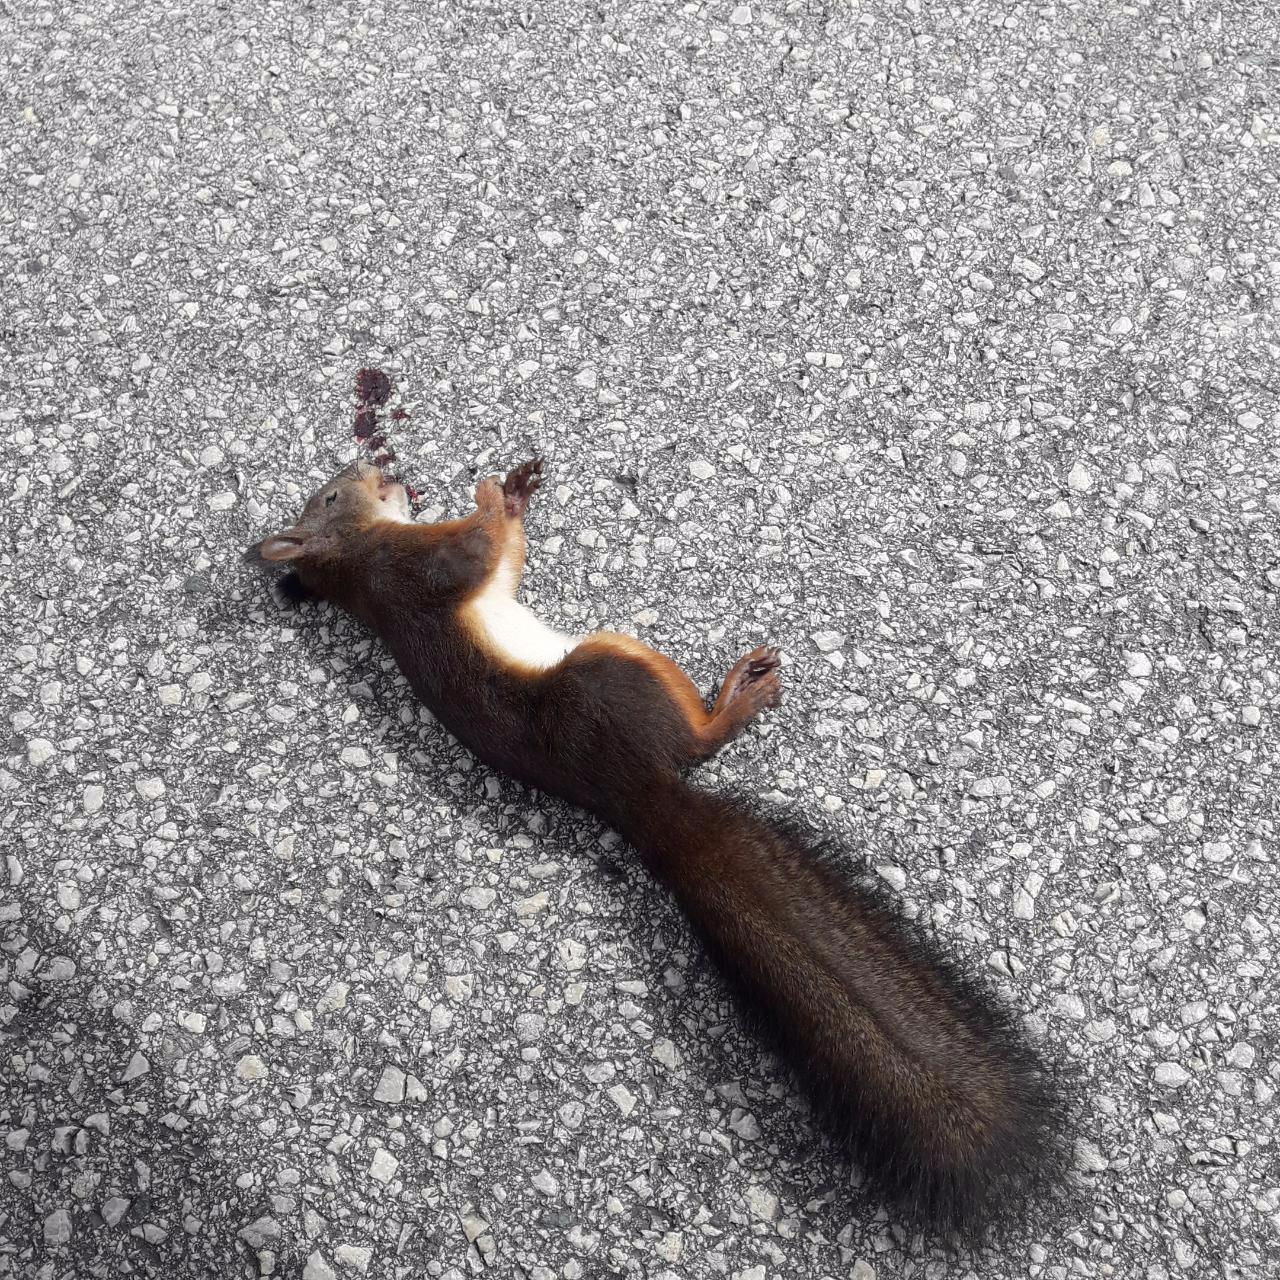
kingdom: Animalia
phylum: Chordata
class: Mammalia
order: Rodentia
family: Sciuridae
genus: Sciurus
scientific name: Sciurus vulgaris
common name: Eurasian red squirrel
